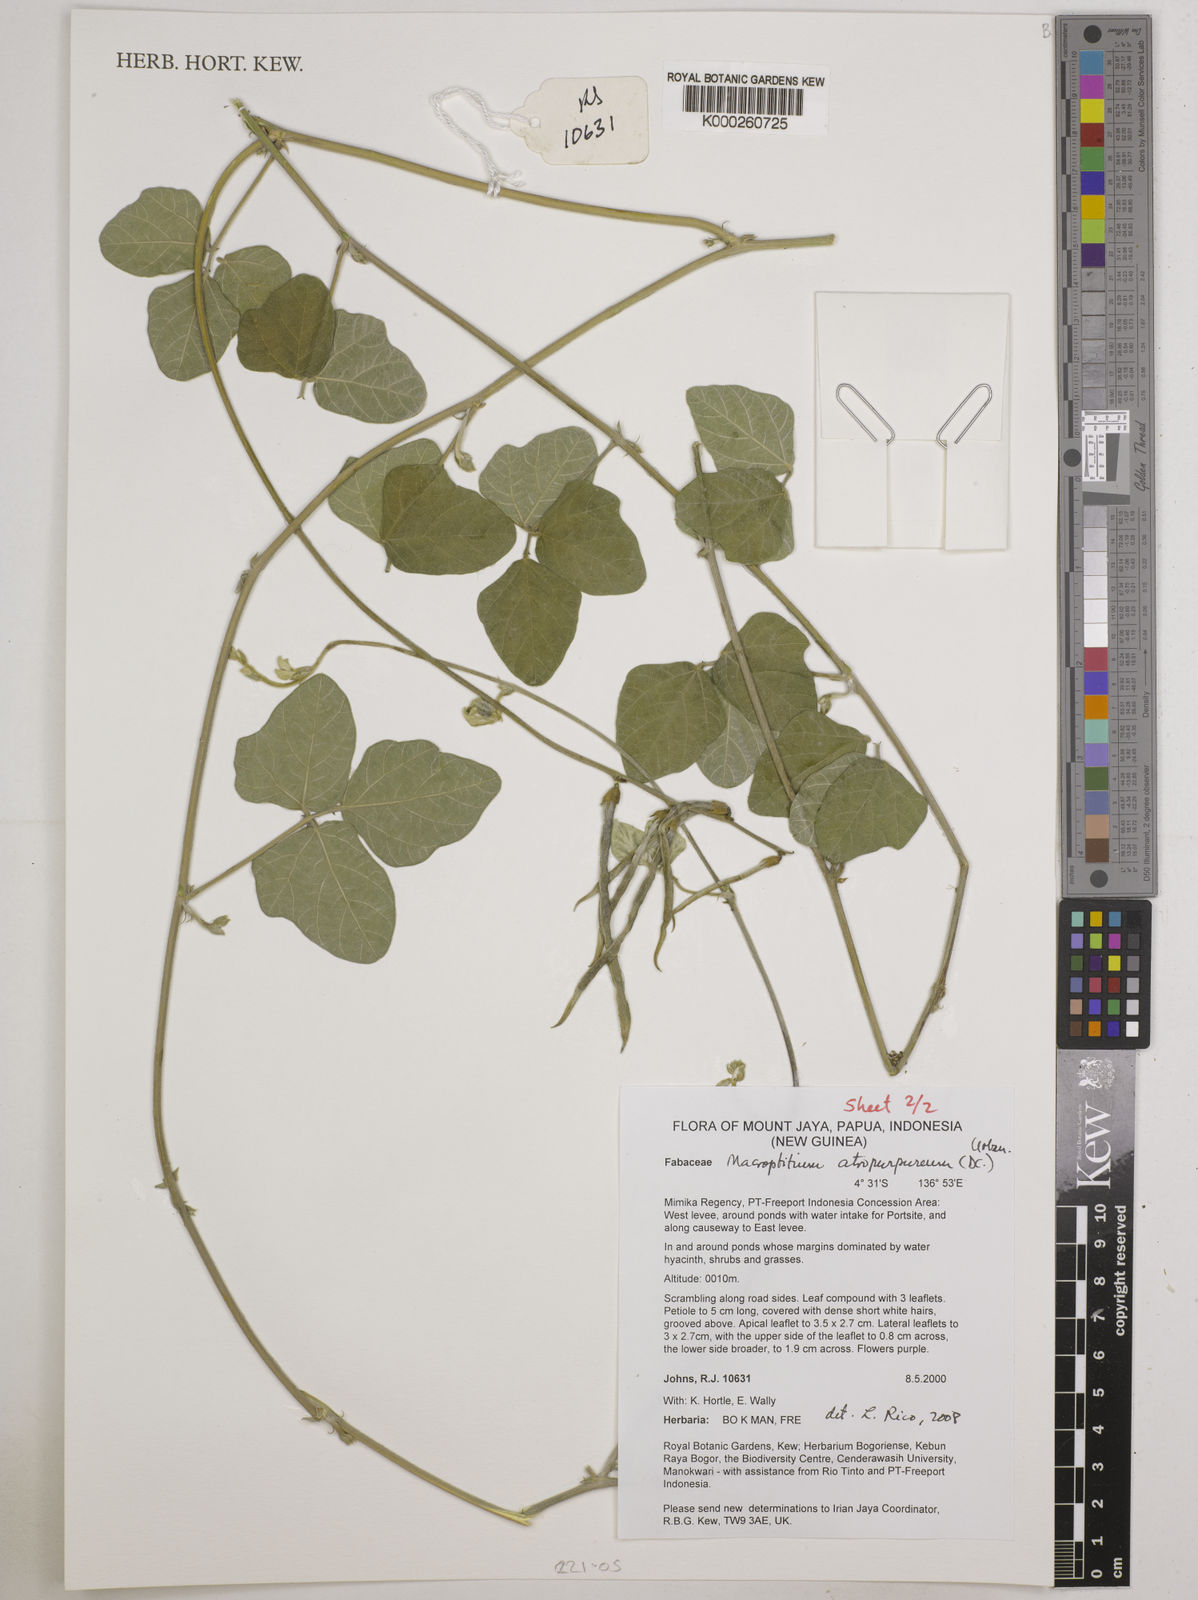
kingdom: Plantae
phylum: Tracheophyta
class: Magnoliopsida
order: Fabales
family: Fabaceae
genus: Macroptilium
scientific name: Macroptilium atropurpureum
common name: Purple bushbean
